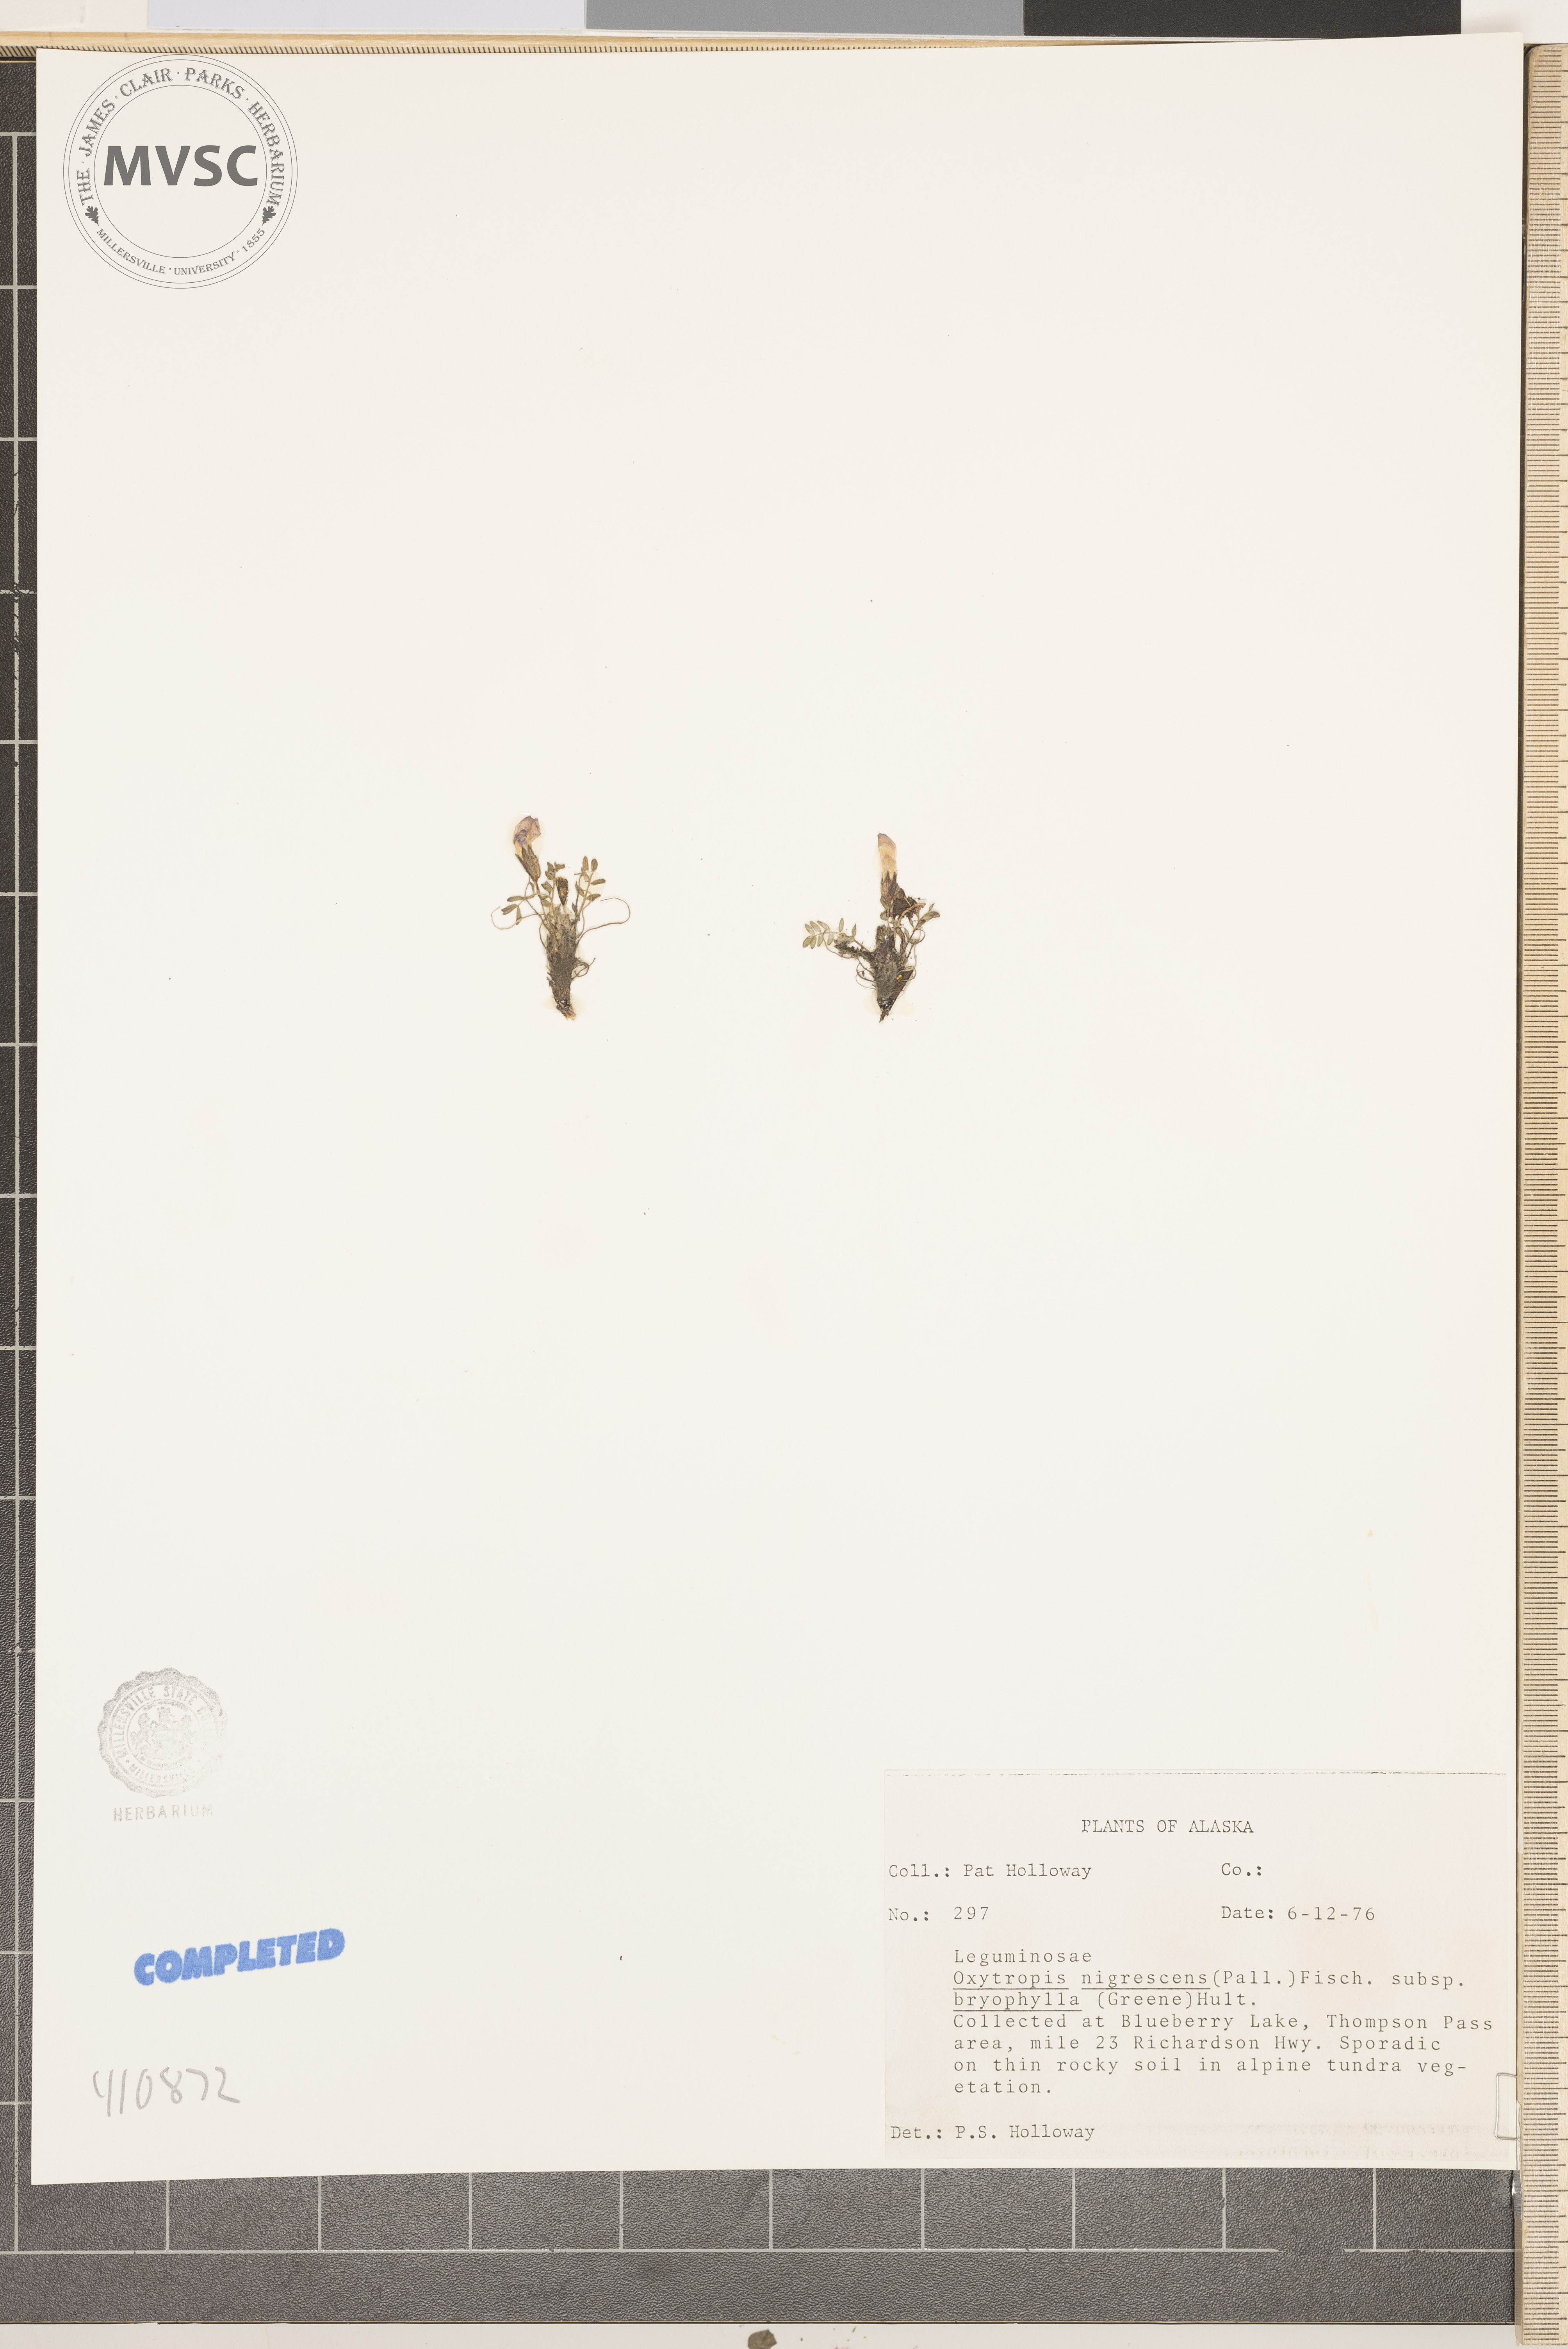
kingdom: Plantae
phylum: Tracheophyta
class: Magnoliopsida
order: Fabales
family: Fabaceae
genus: Oxytropis
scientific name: Oxytropis nigrescens
